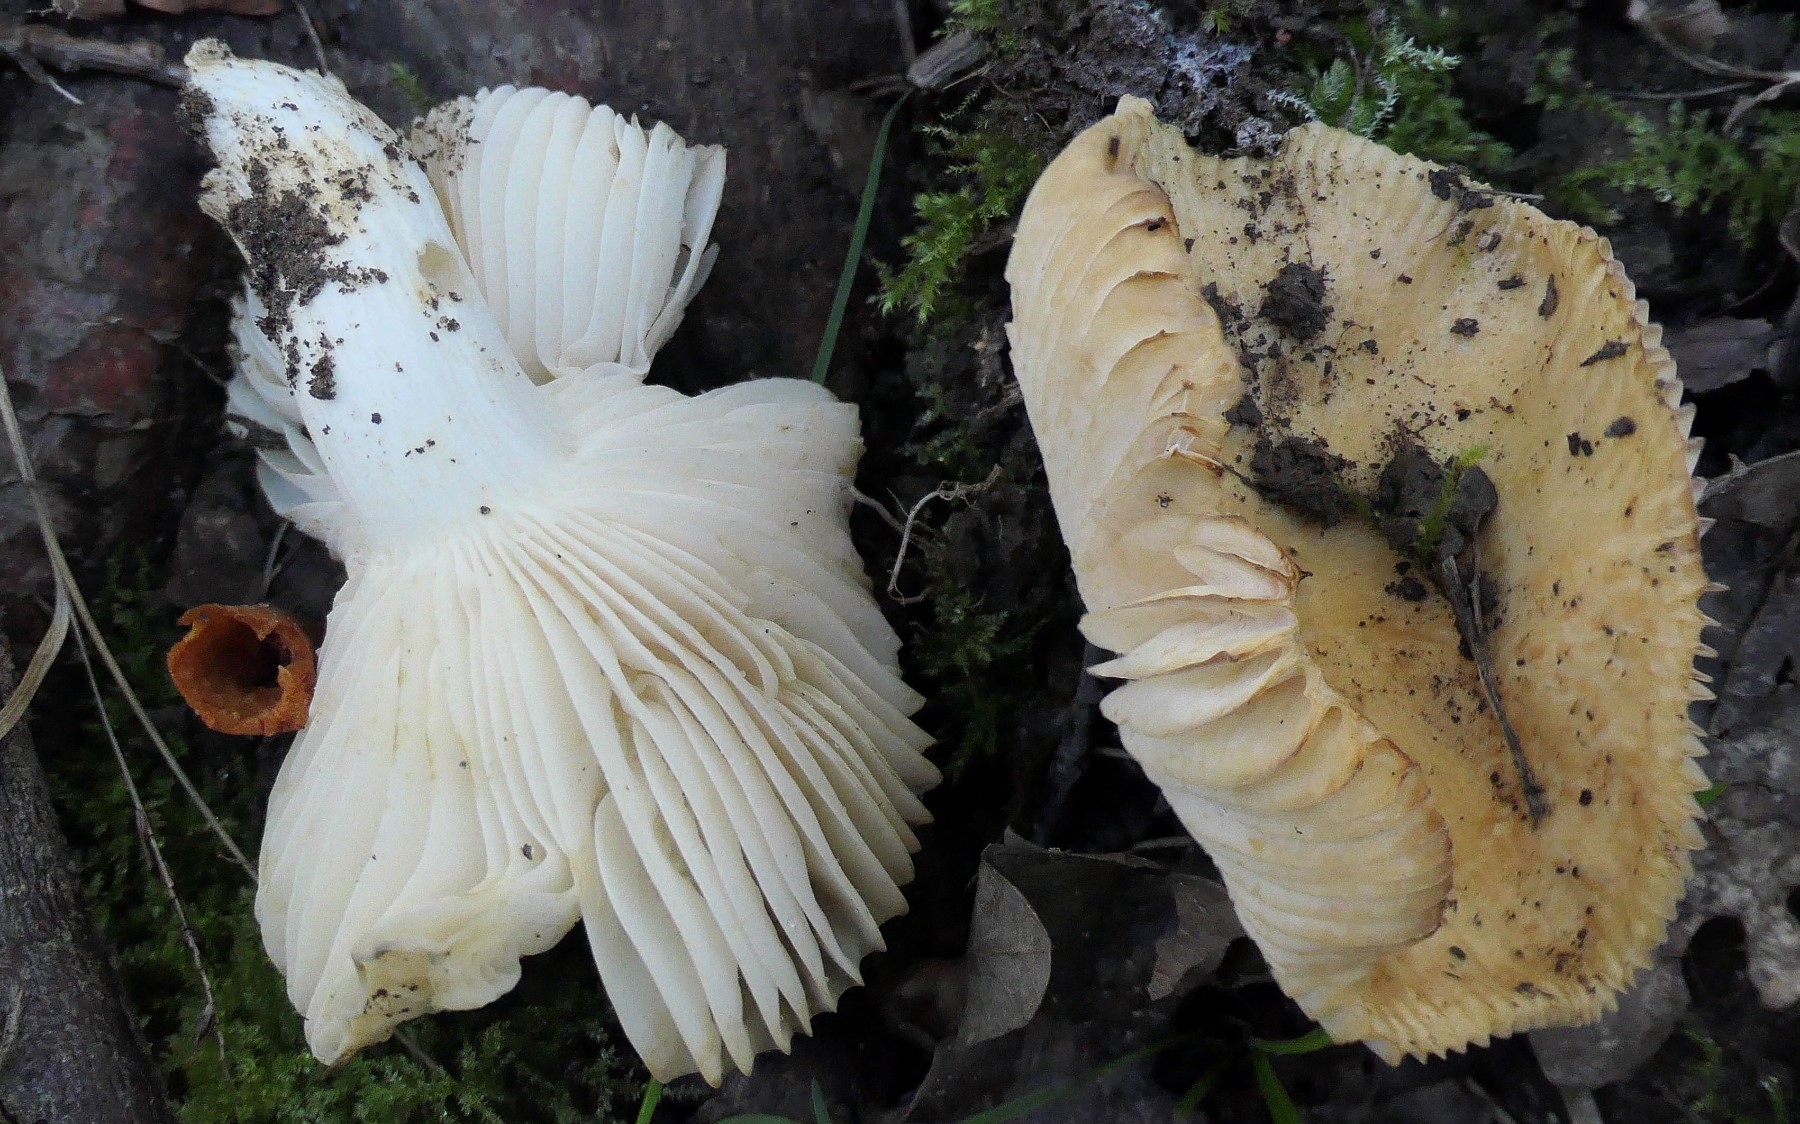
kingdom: Fungi
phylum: Basidiomycota
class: Agaricomycetes
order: Russulales
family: Russulaceae
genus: Russula
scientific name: Russula farinipes
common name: gul kam-skørhat
